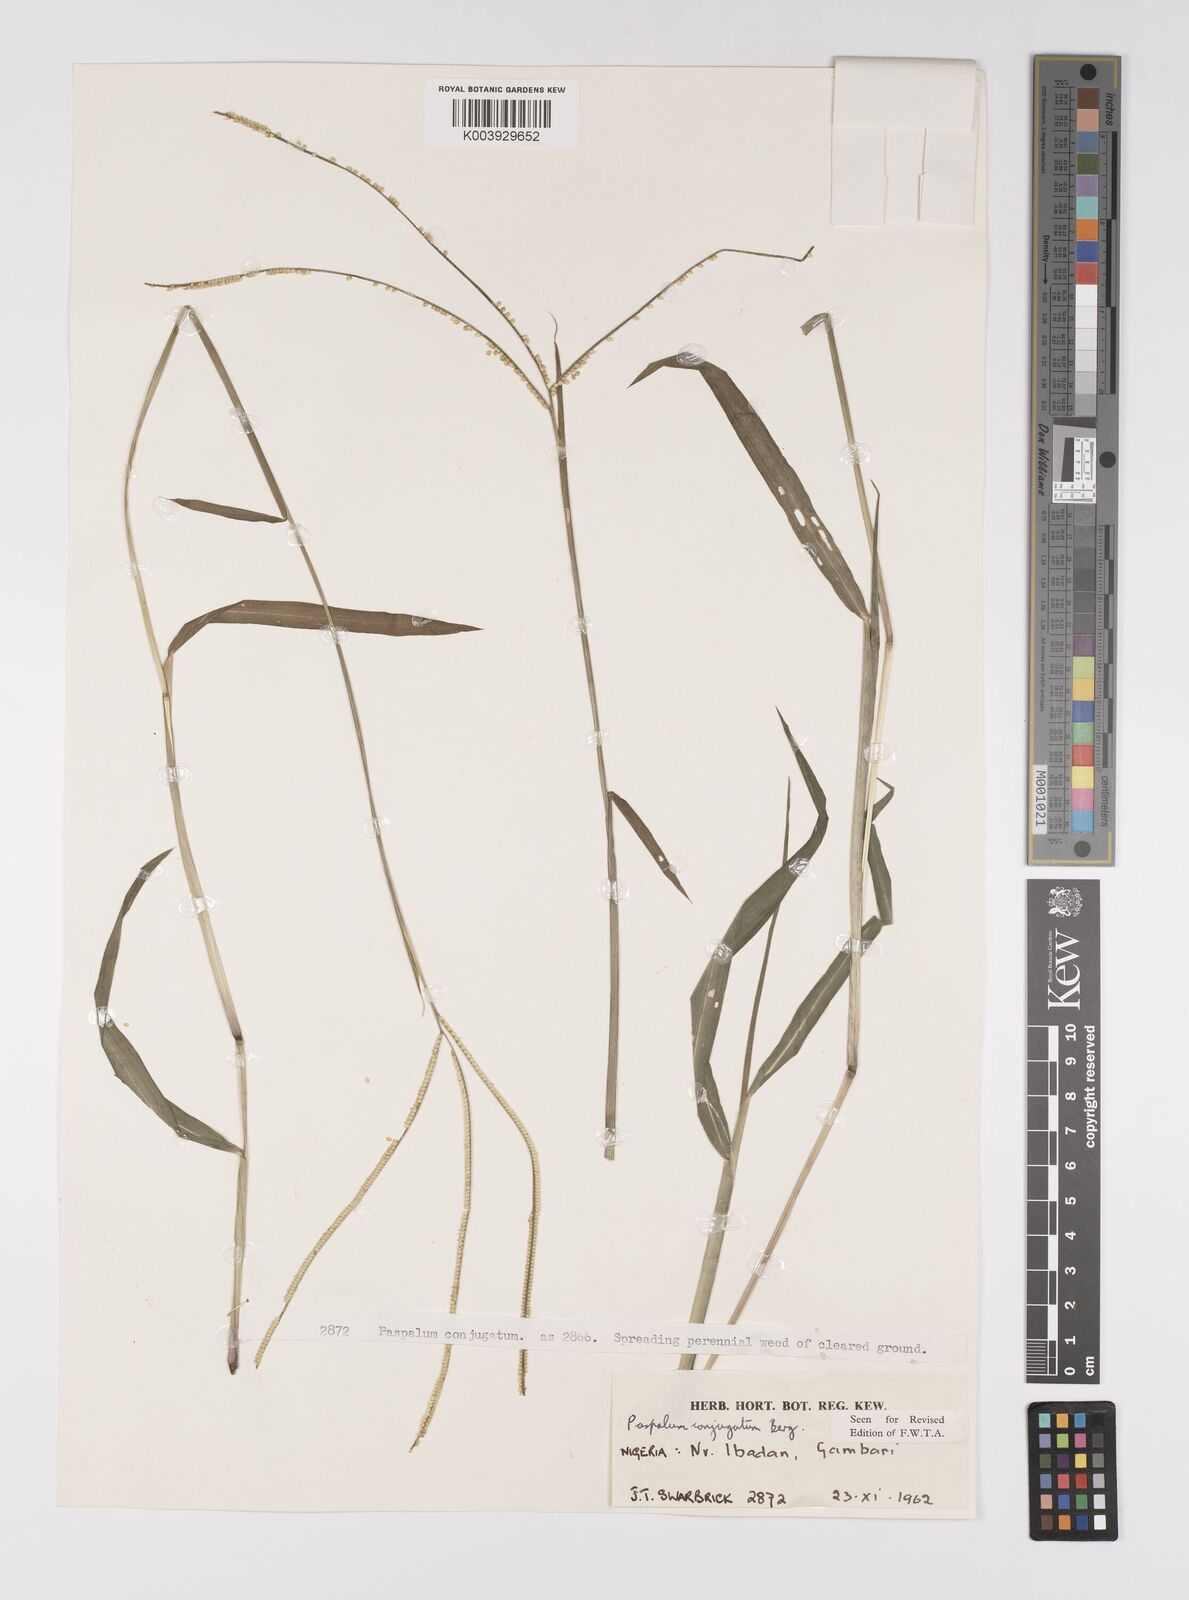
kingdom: Plantae
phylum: Tracheophyta
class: Liliopsida
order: Poales
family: Poaceae
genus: Paspalum
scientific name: Paspalum conjugatum
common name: Hilograss
